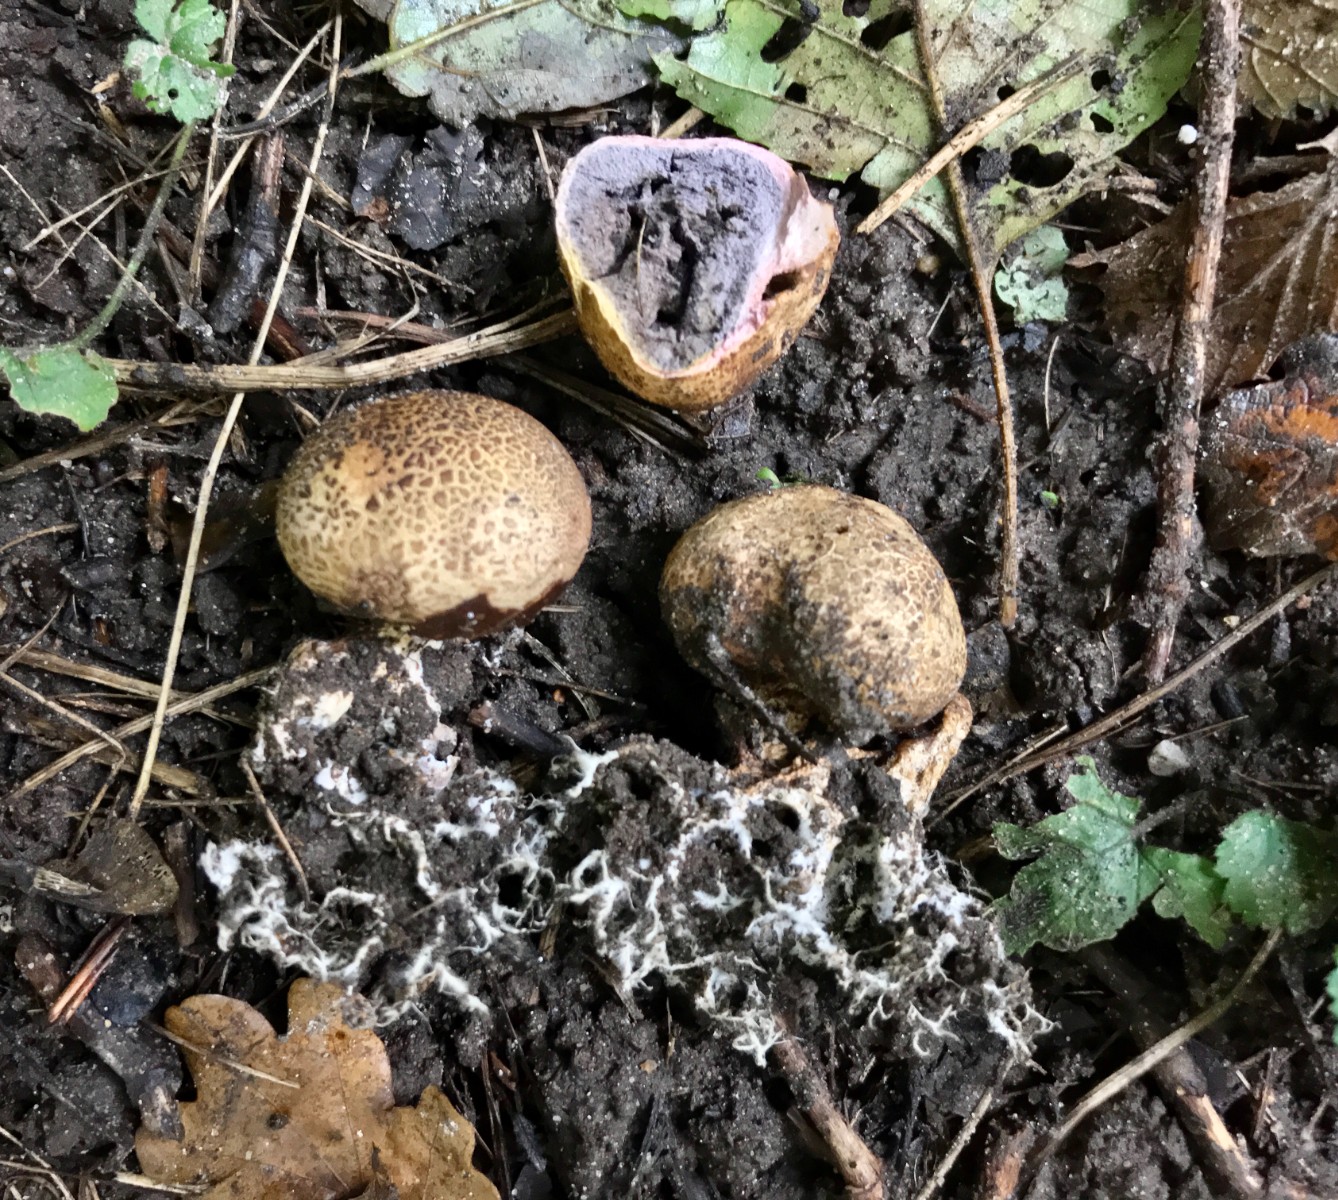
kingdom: Fungi
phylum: Basidiomycota
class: Agaricomycetes
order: Boletales
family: Sclerodermataceae
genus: Scleroderma
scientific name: Scleroderma verrucosum
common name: stilket bruskbold
